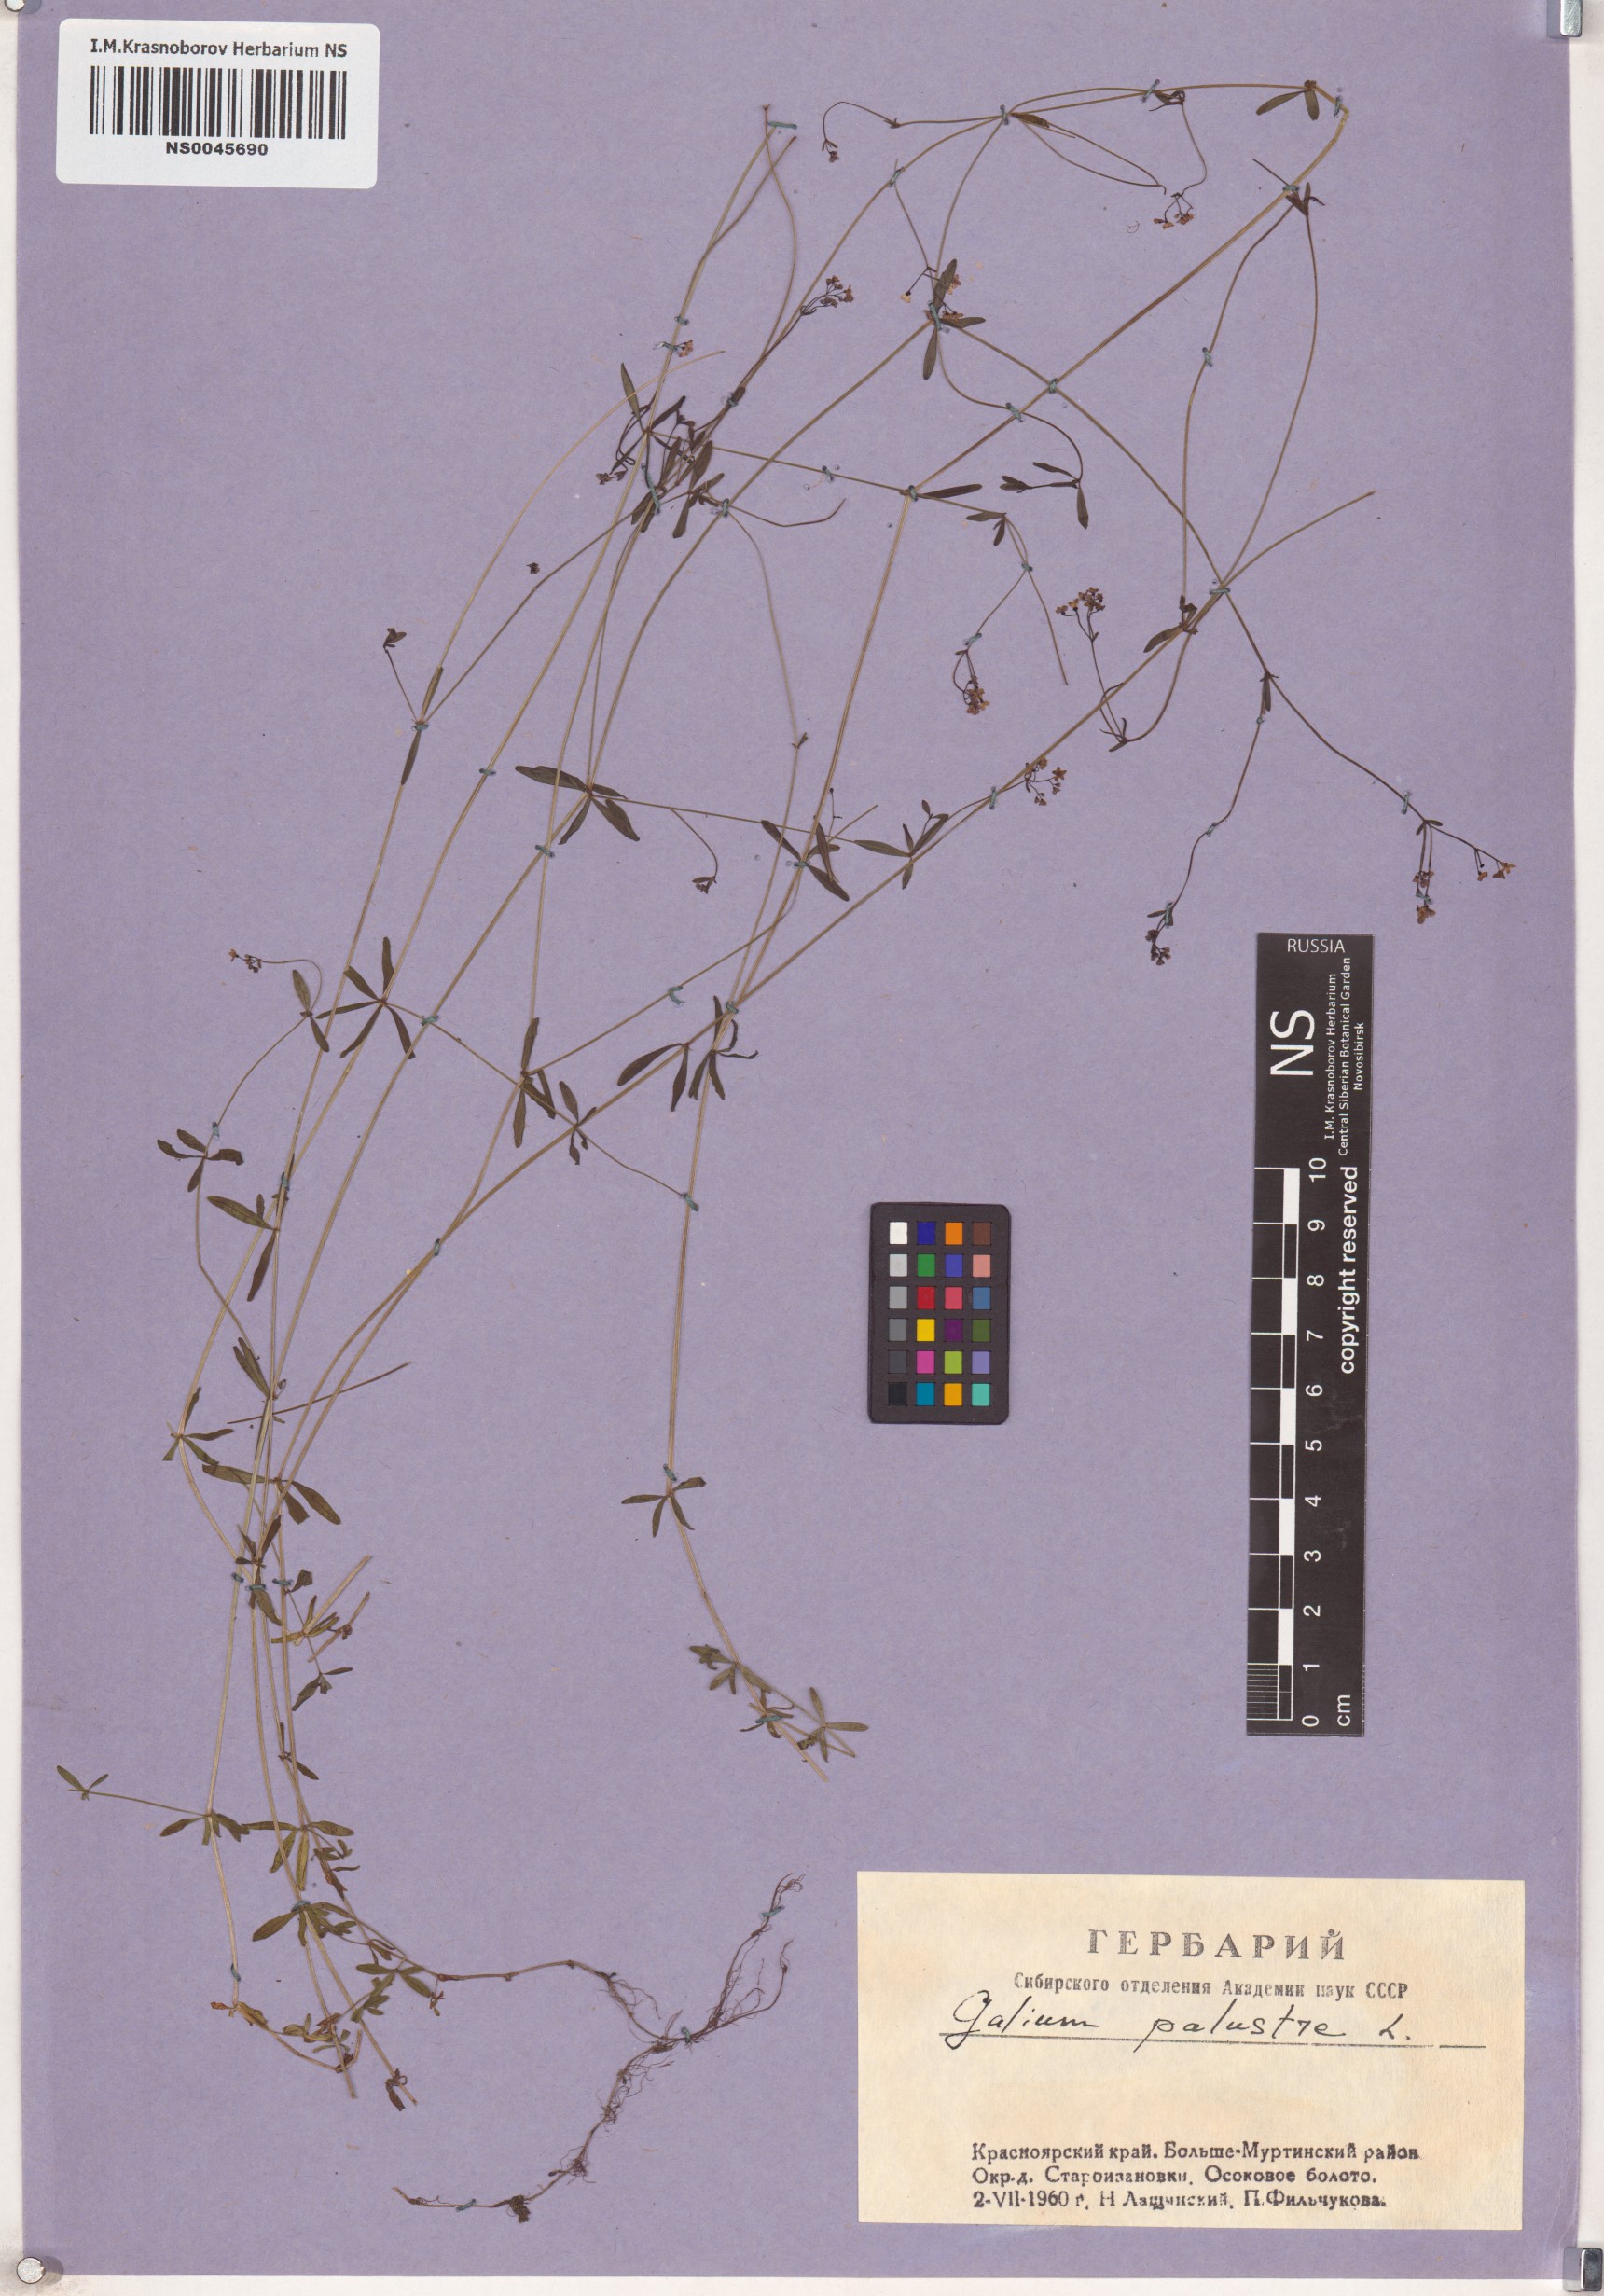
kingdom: Plantae
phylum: Tracheophyta
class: Magnoliopsida
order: Gentianales
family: Rubiaceae
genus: Galium
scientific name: Galium palustre
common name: Common marsh-bedstraw
